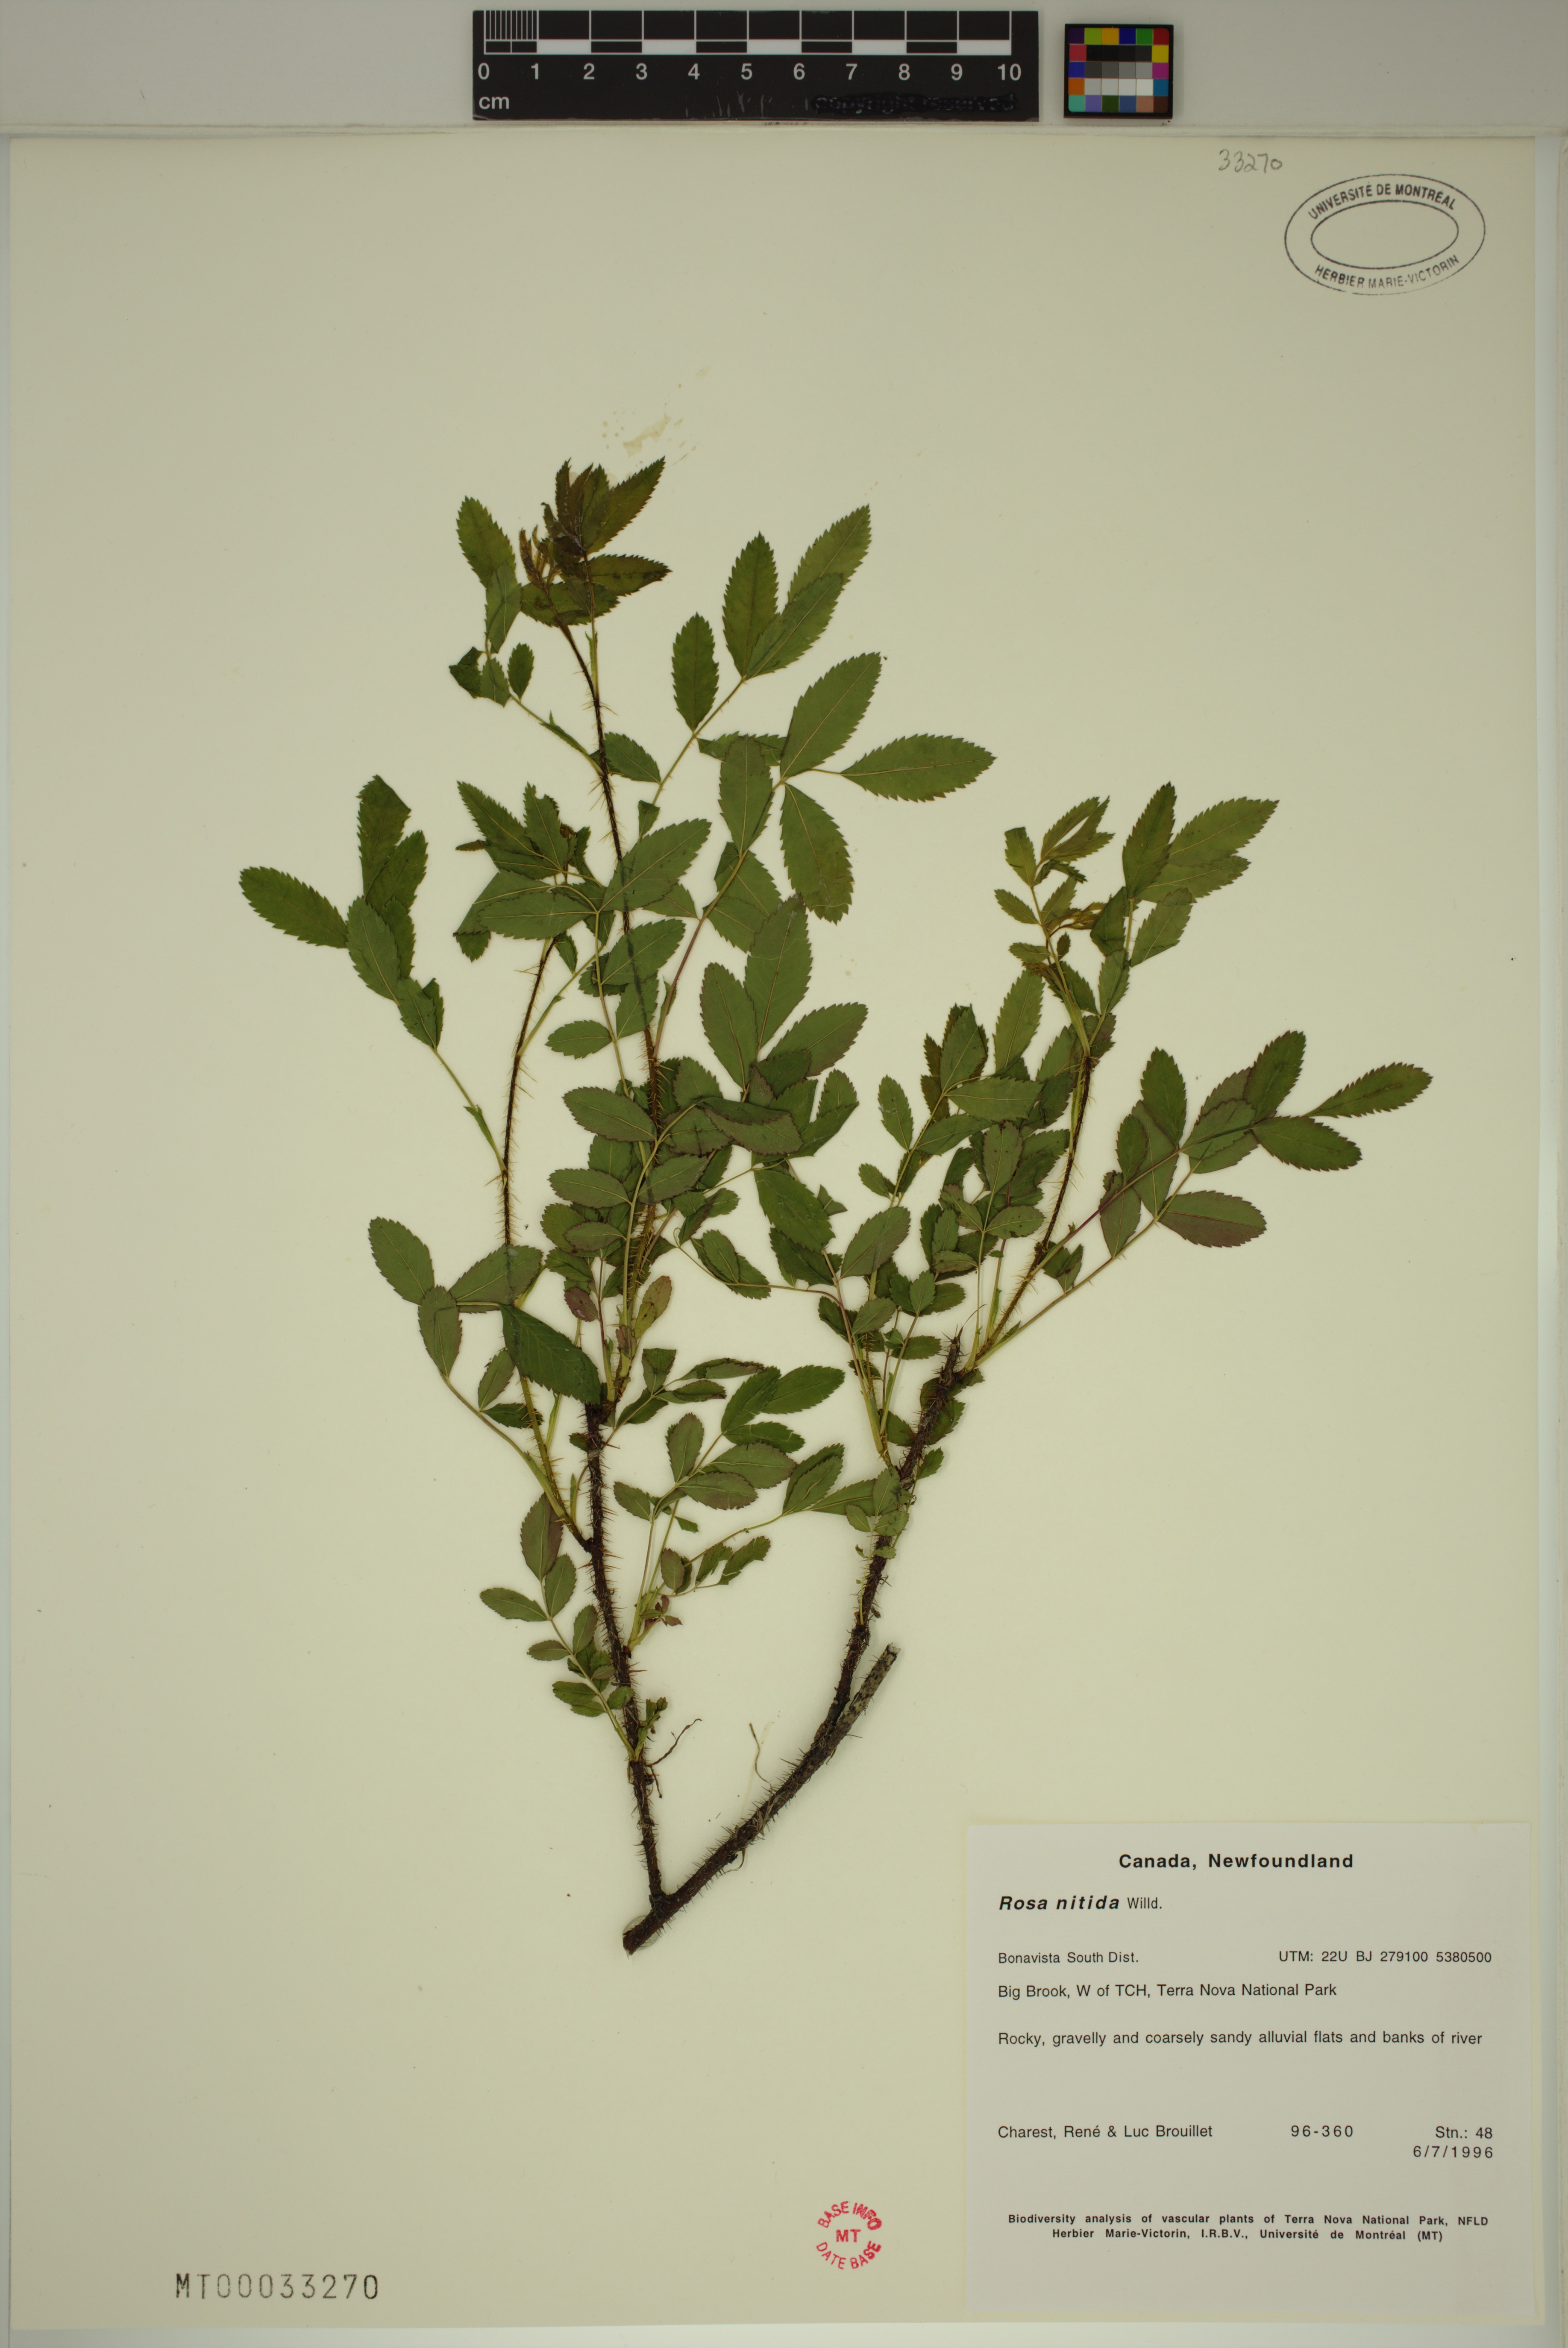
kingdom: Plantae
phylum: Tracheophyta
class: Magnoliopsida
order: Rosales
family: Rosaceae
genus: Rosa
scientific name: Rosa nitida
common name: New england rose
